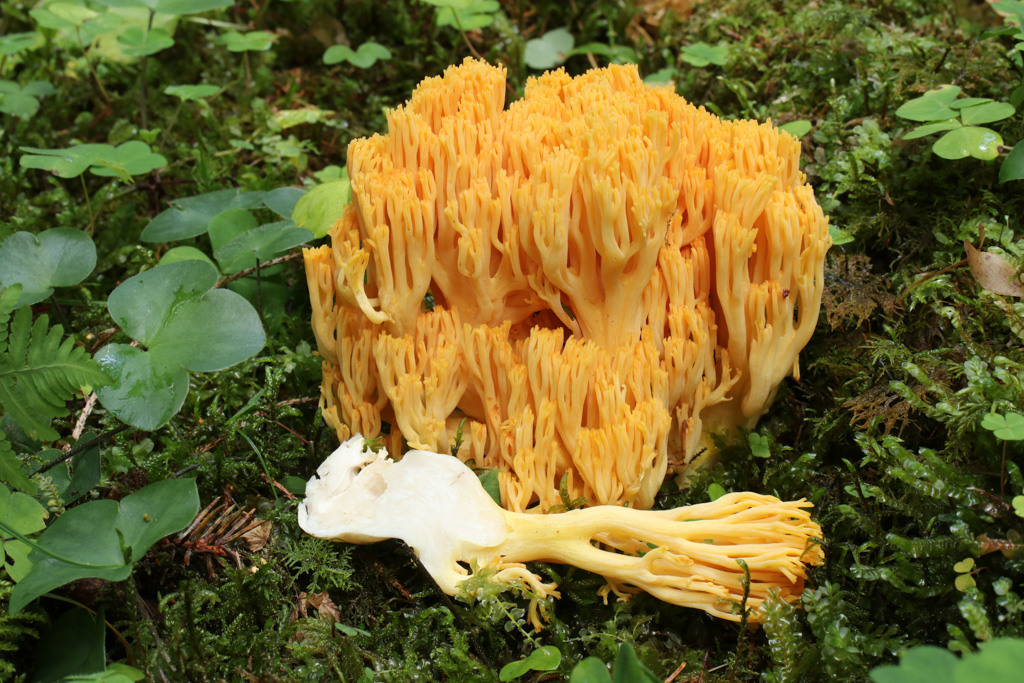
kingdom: Fungi
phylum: Basidiomycota
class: Agaricomycetes
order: Gomphales
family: Gomphaceae
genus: Ramaria
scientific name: Ramaria brunneicontusa
